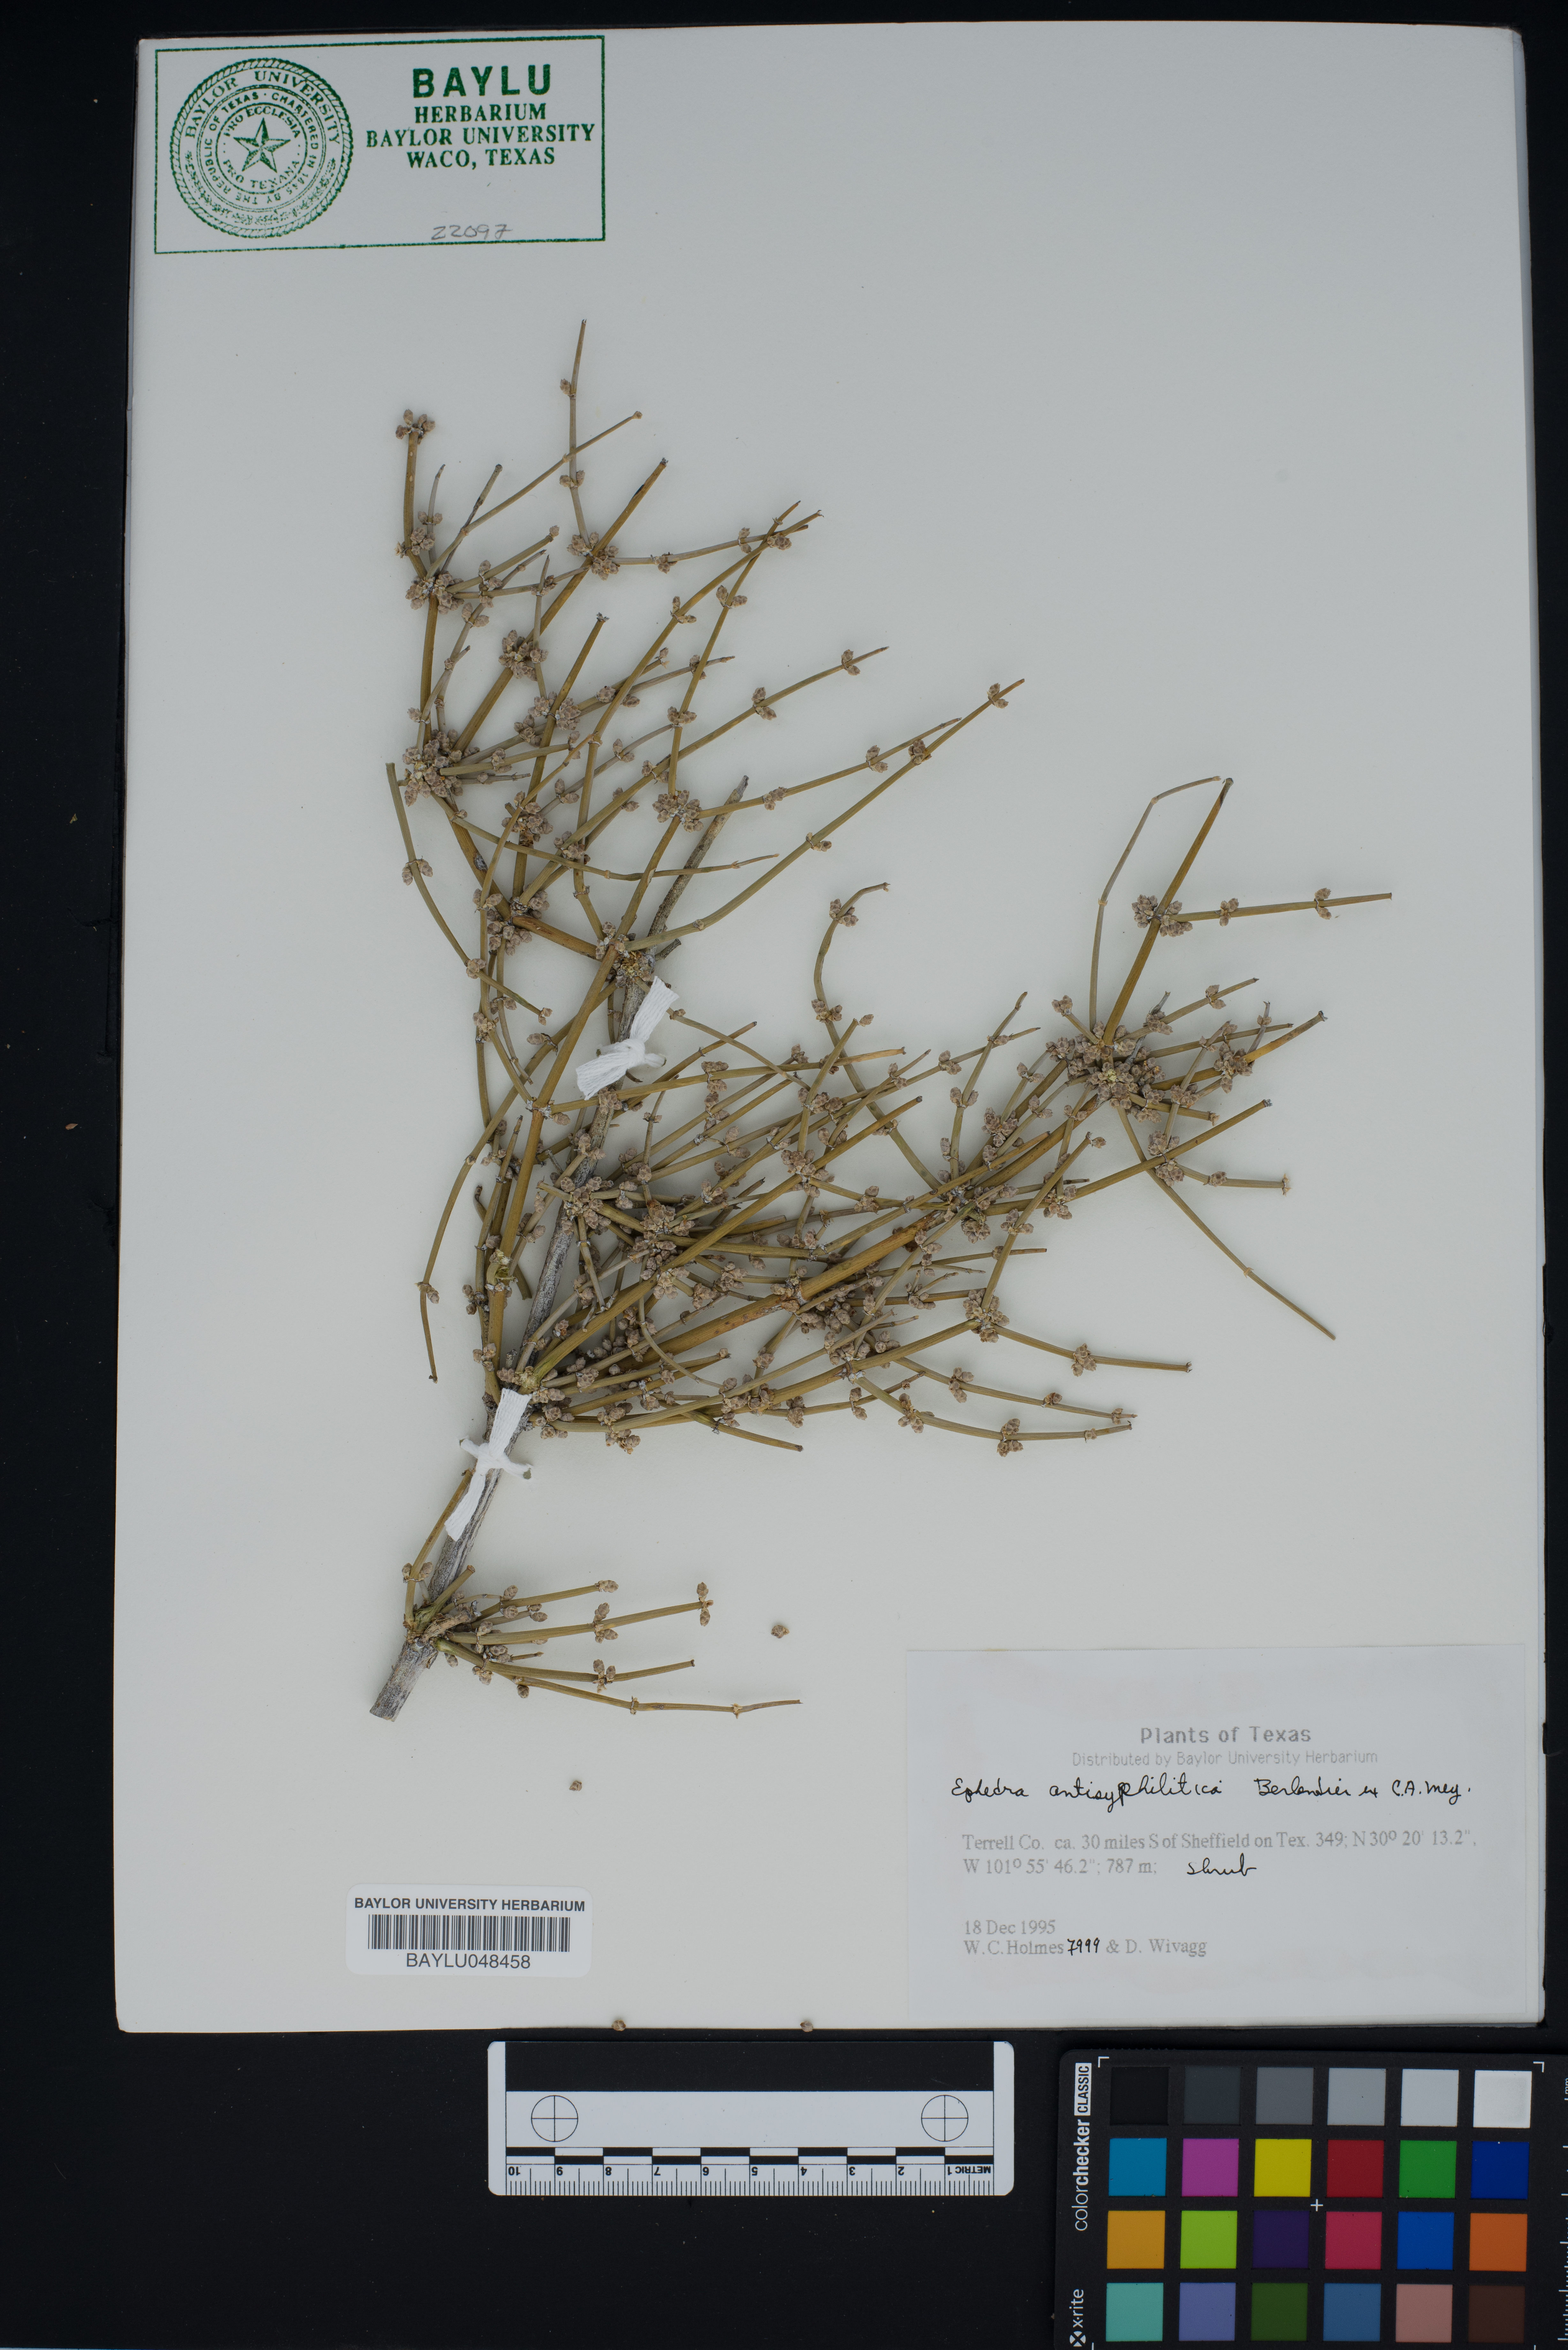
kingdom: Plantae
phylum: Tracheophyta
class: Gnetopsida
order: Ephedrales
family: Ephedraceae
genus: Ephedra
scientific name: Ephedra antisyphilitica
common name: Clipweed
